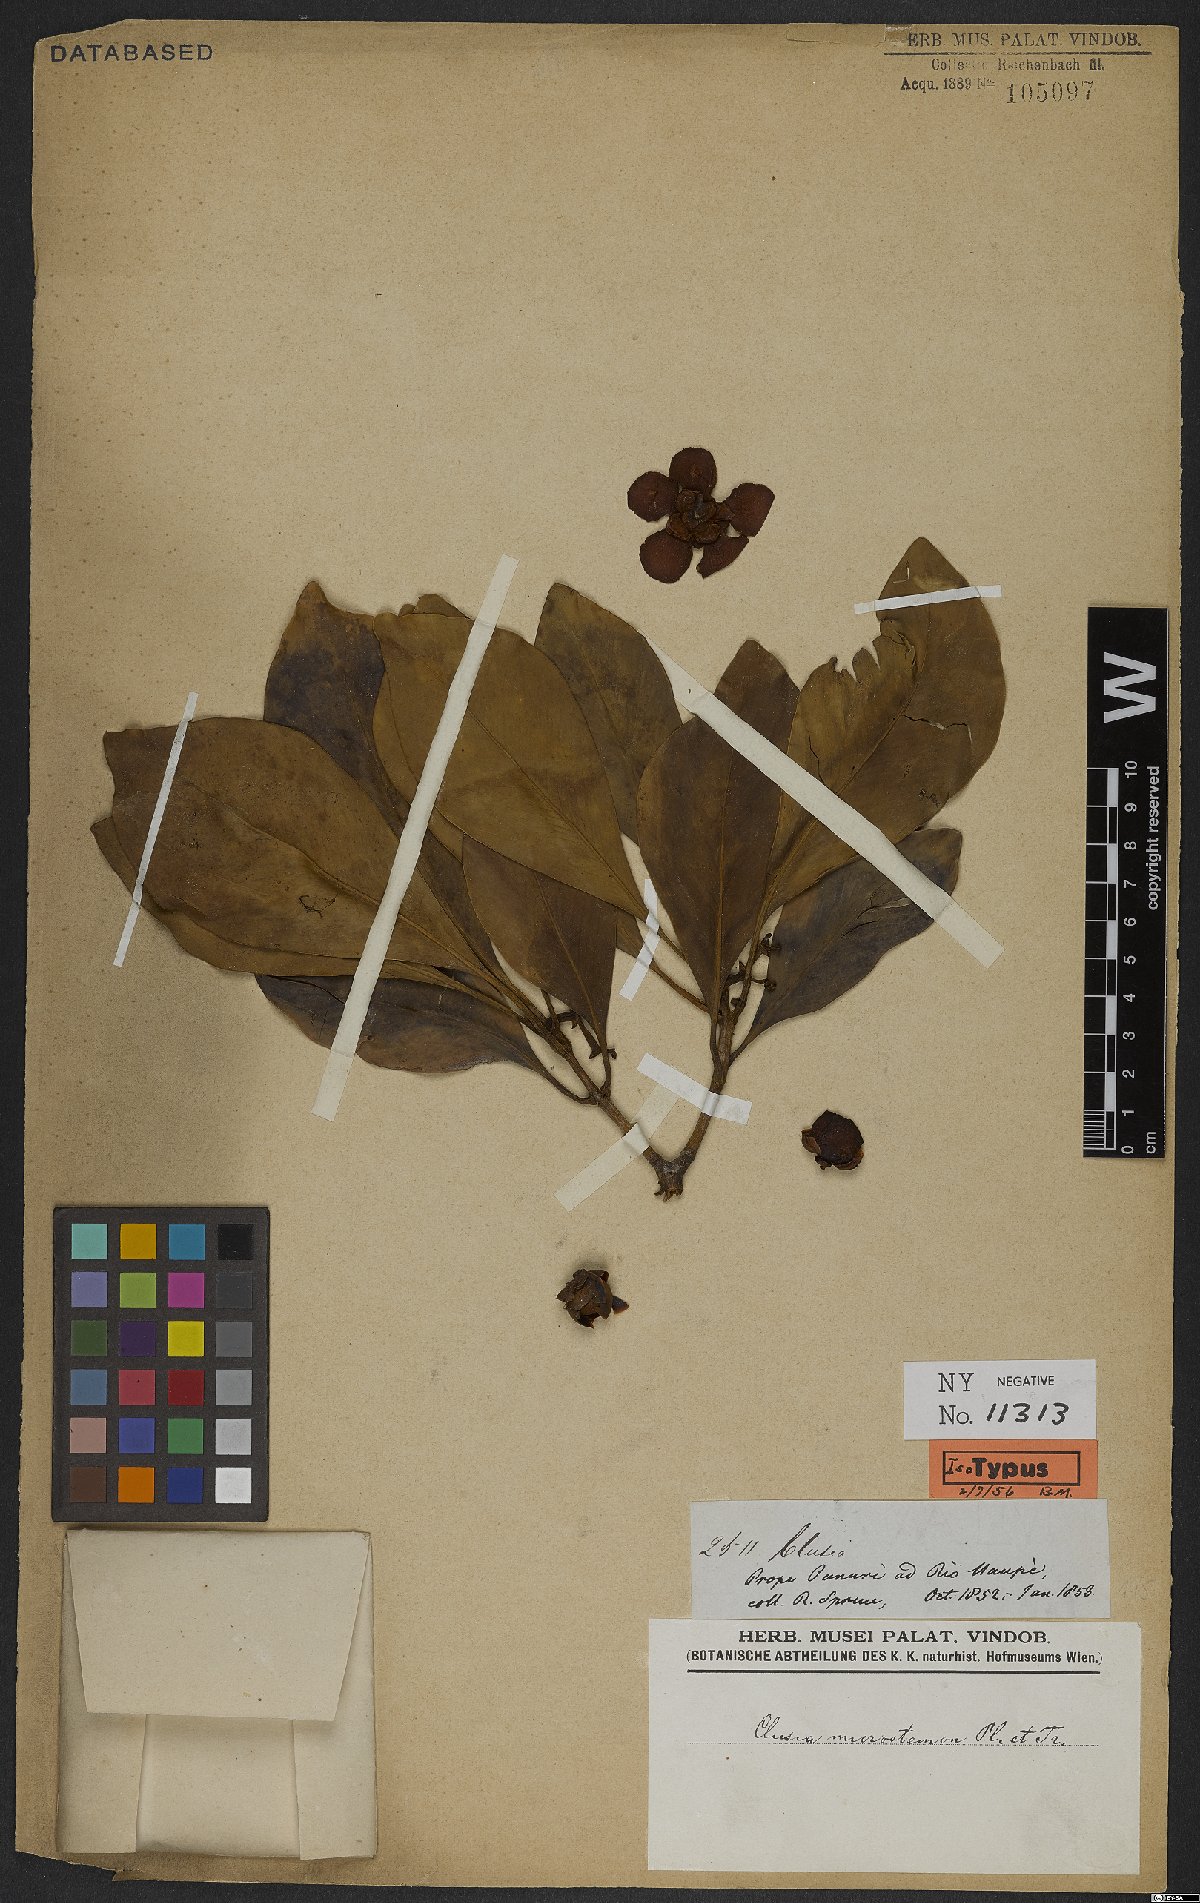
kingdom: Plantae
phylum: Tracheophyta
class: Magnoliopsida
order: Malpighiales
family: Clusiaceae
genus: Clusia
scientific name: Clusia microstemon
